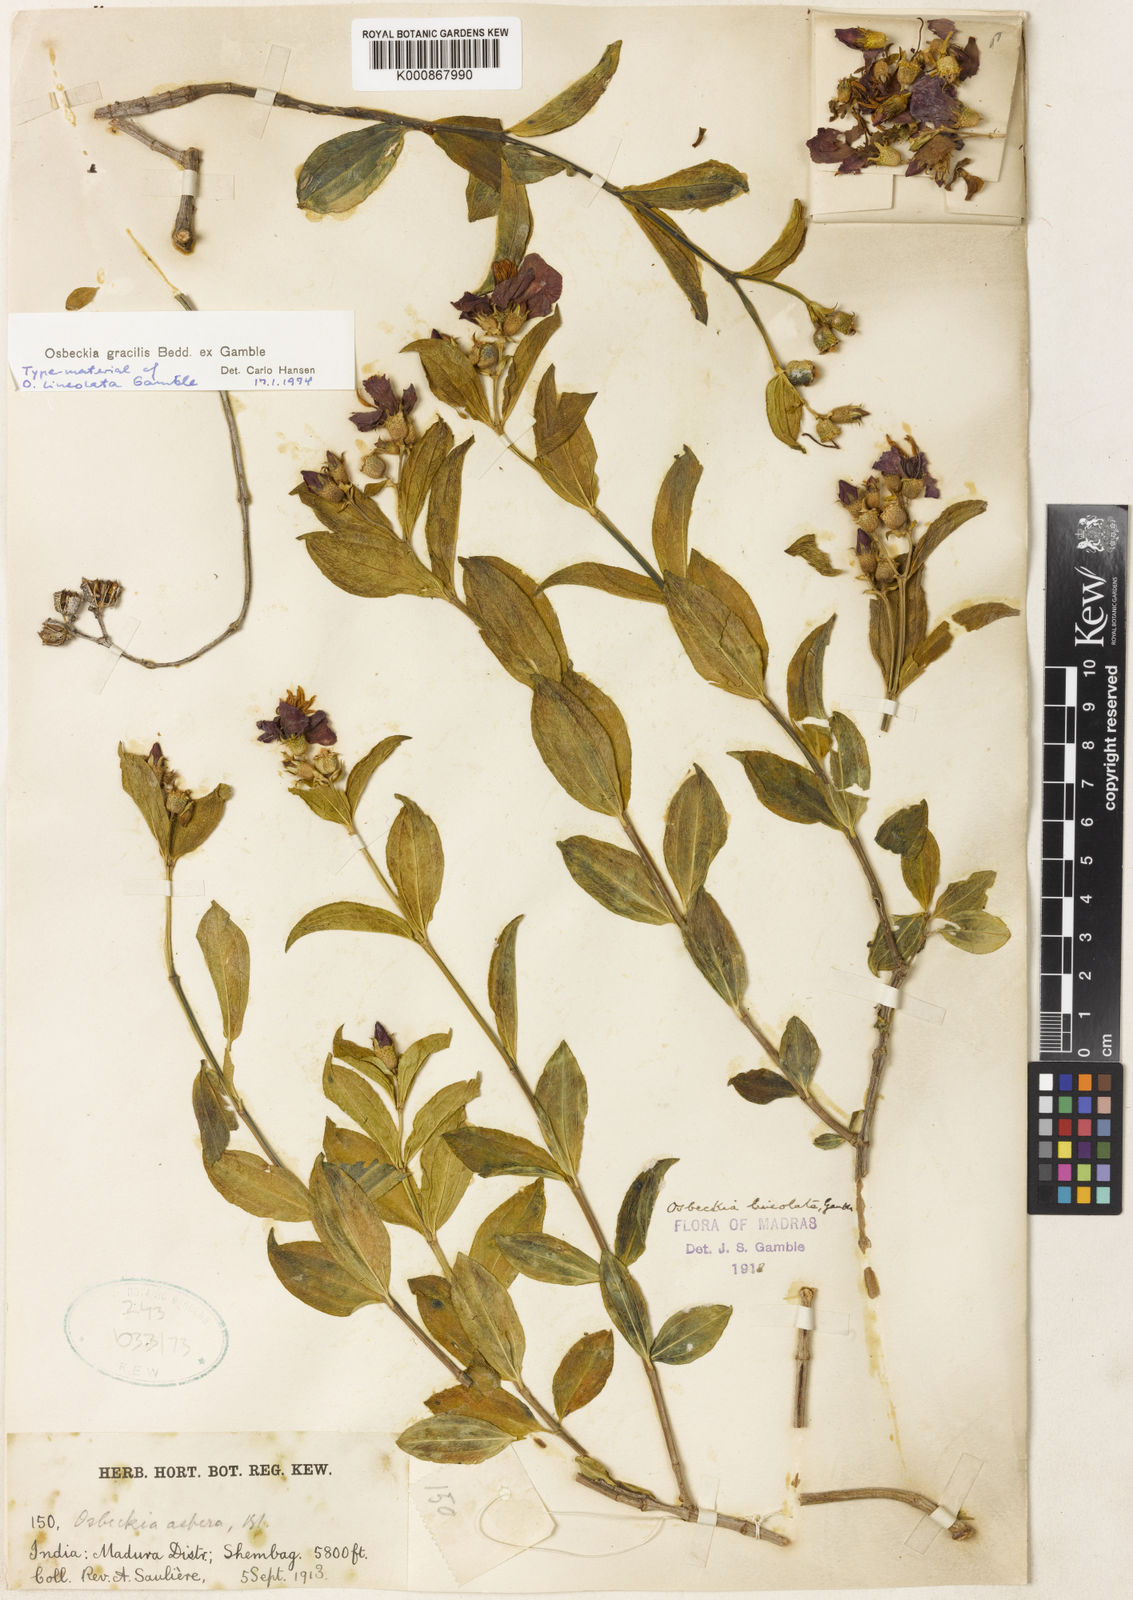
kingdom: Plantae
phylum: Tracheophyta
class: Magnoliopsida
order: Myrtales
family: Melastomataceae
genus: Osbeckia
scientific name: Osbeckia gracilis
